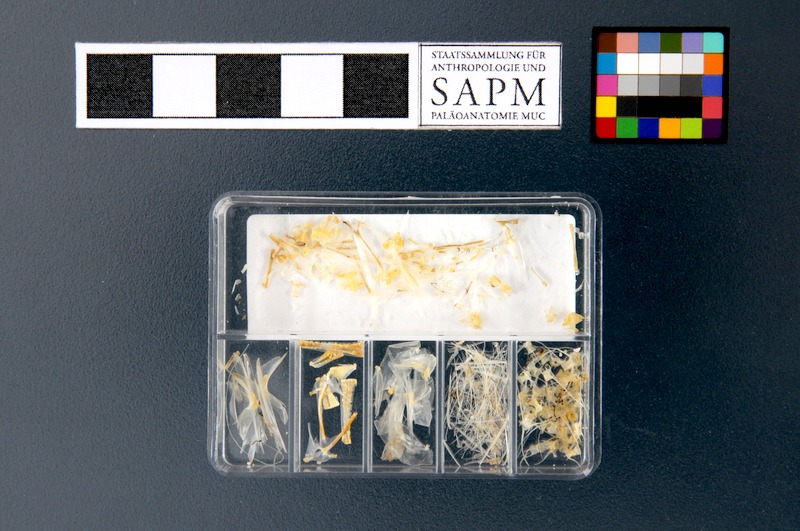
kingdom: Animalia
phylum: Chordata
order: Clupeiformes
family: Engraulidae
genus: Engraulis
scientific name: Engraulis encrasicolus
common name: European anchovy
